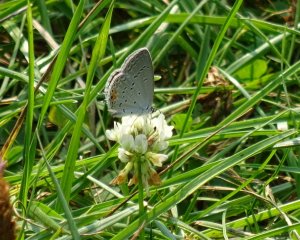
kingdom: Animalia
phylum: Arthropoda
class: Insecta
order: Lepidoptera
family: Lycaenidae
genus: Elkalyce
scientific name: Elkalyce comyntas
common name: Eastern Tailed-Blue
